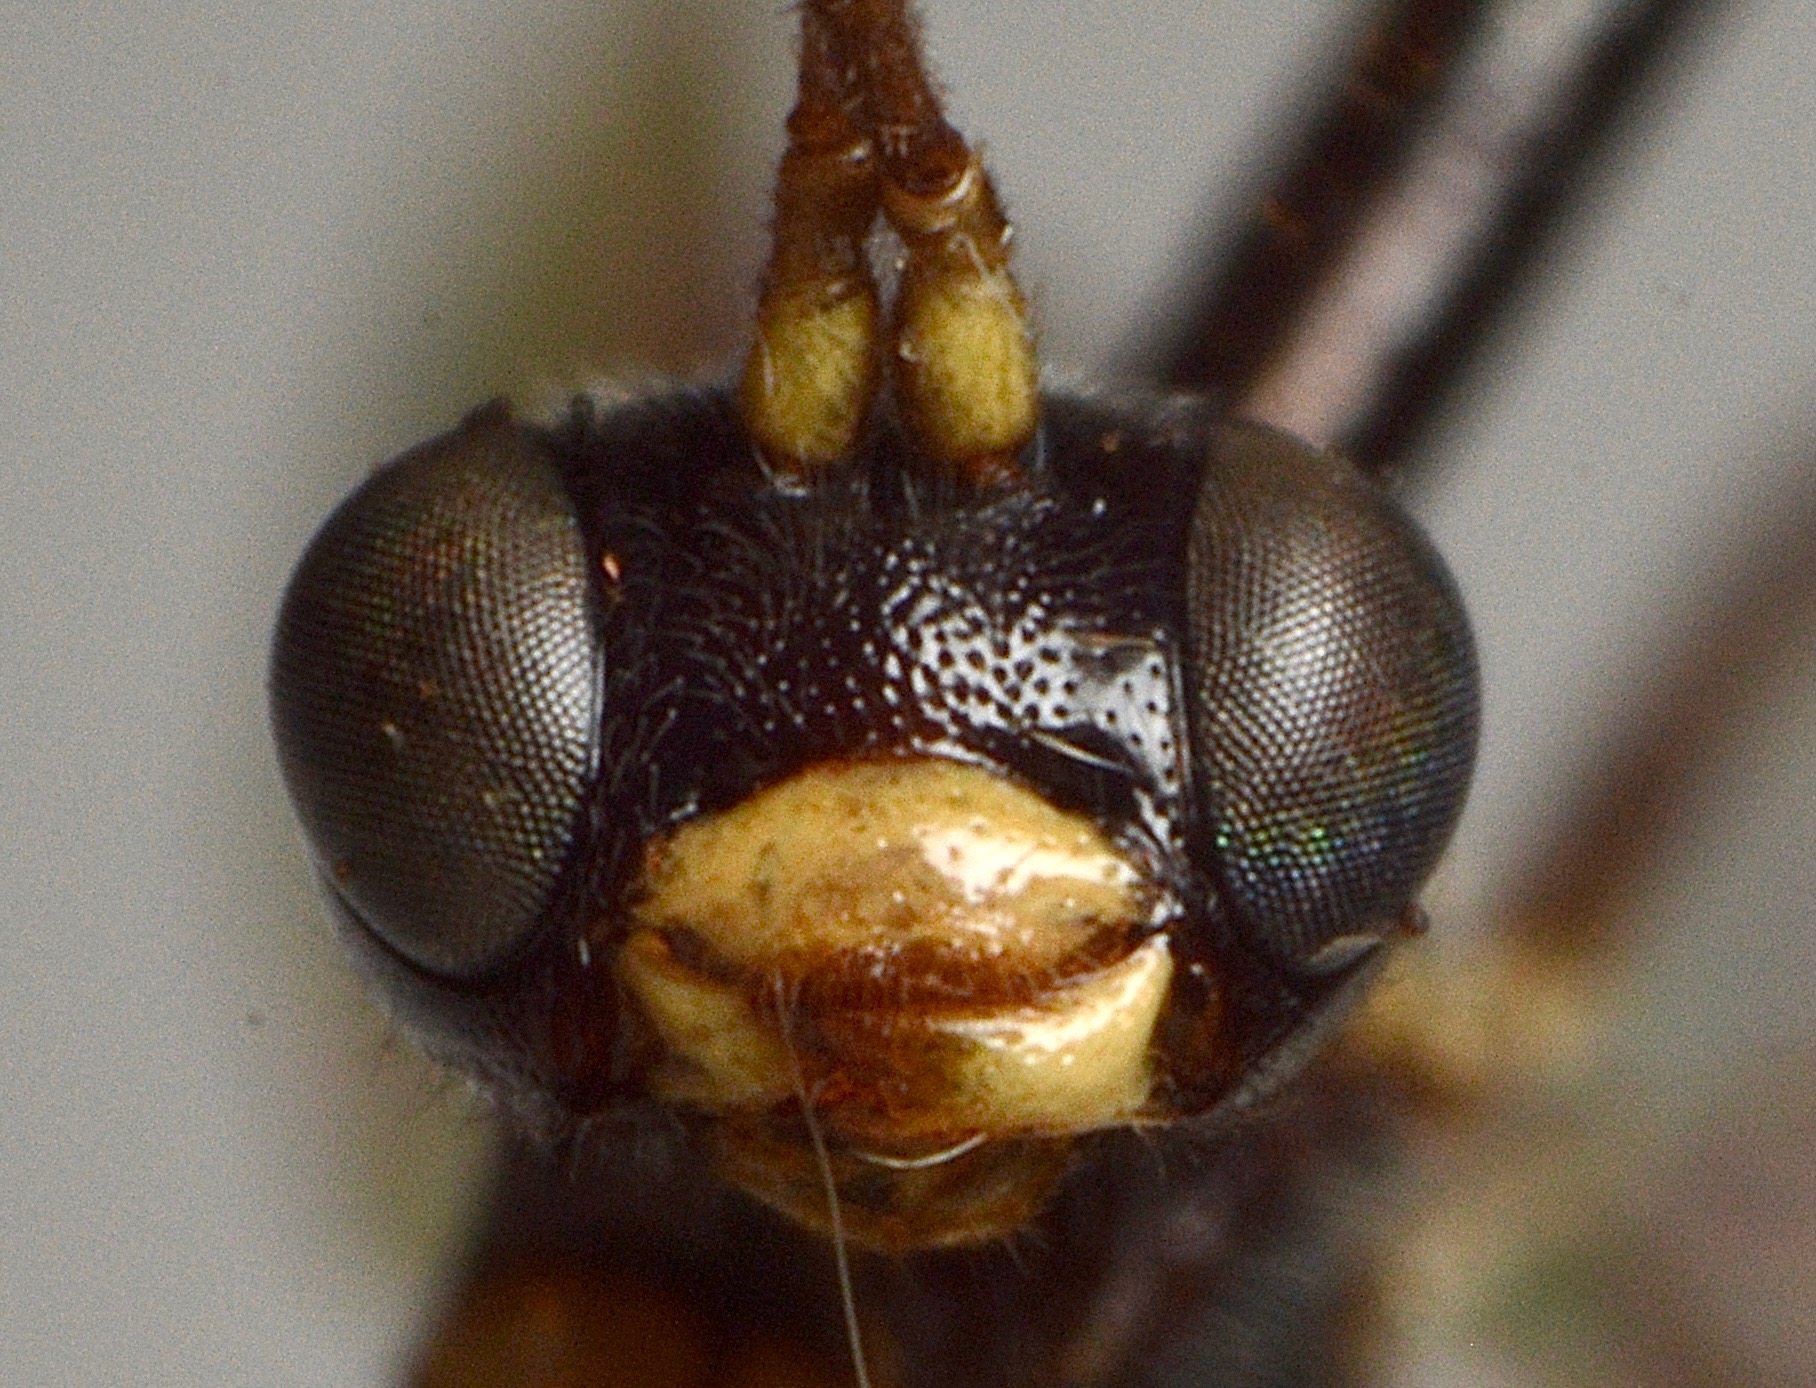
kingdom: Animalia
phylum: Arthropoda
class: Insecta
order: Hymenoptera
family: Ichneumonidae
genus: Polyblastus
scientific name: Polyblastus melanostigmus
